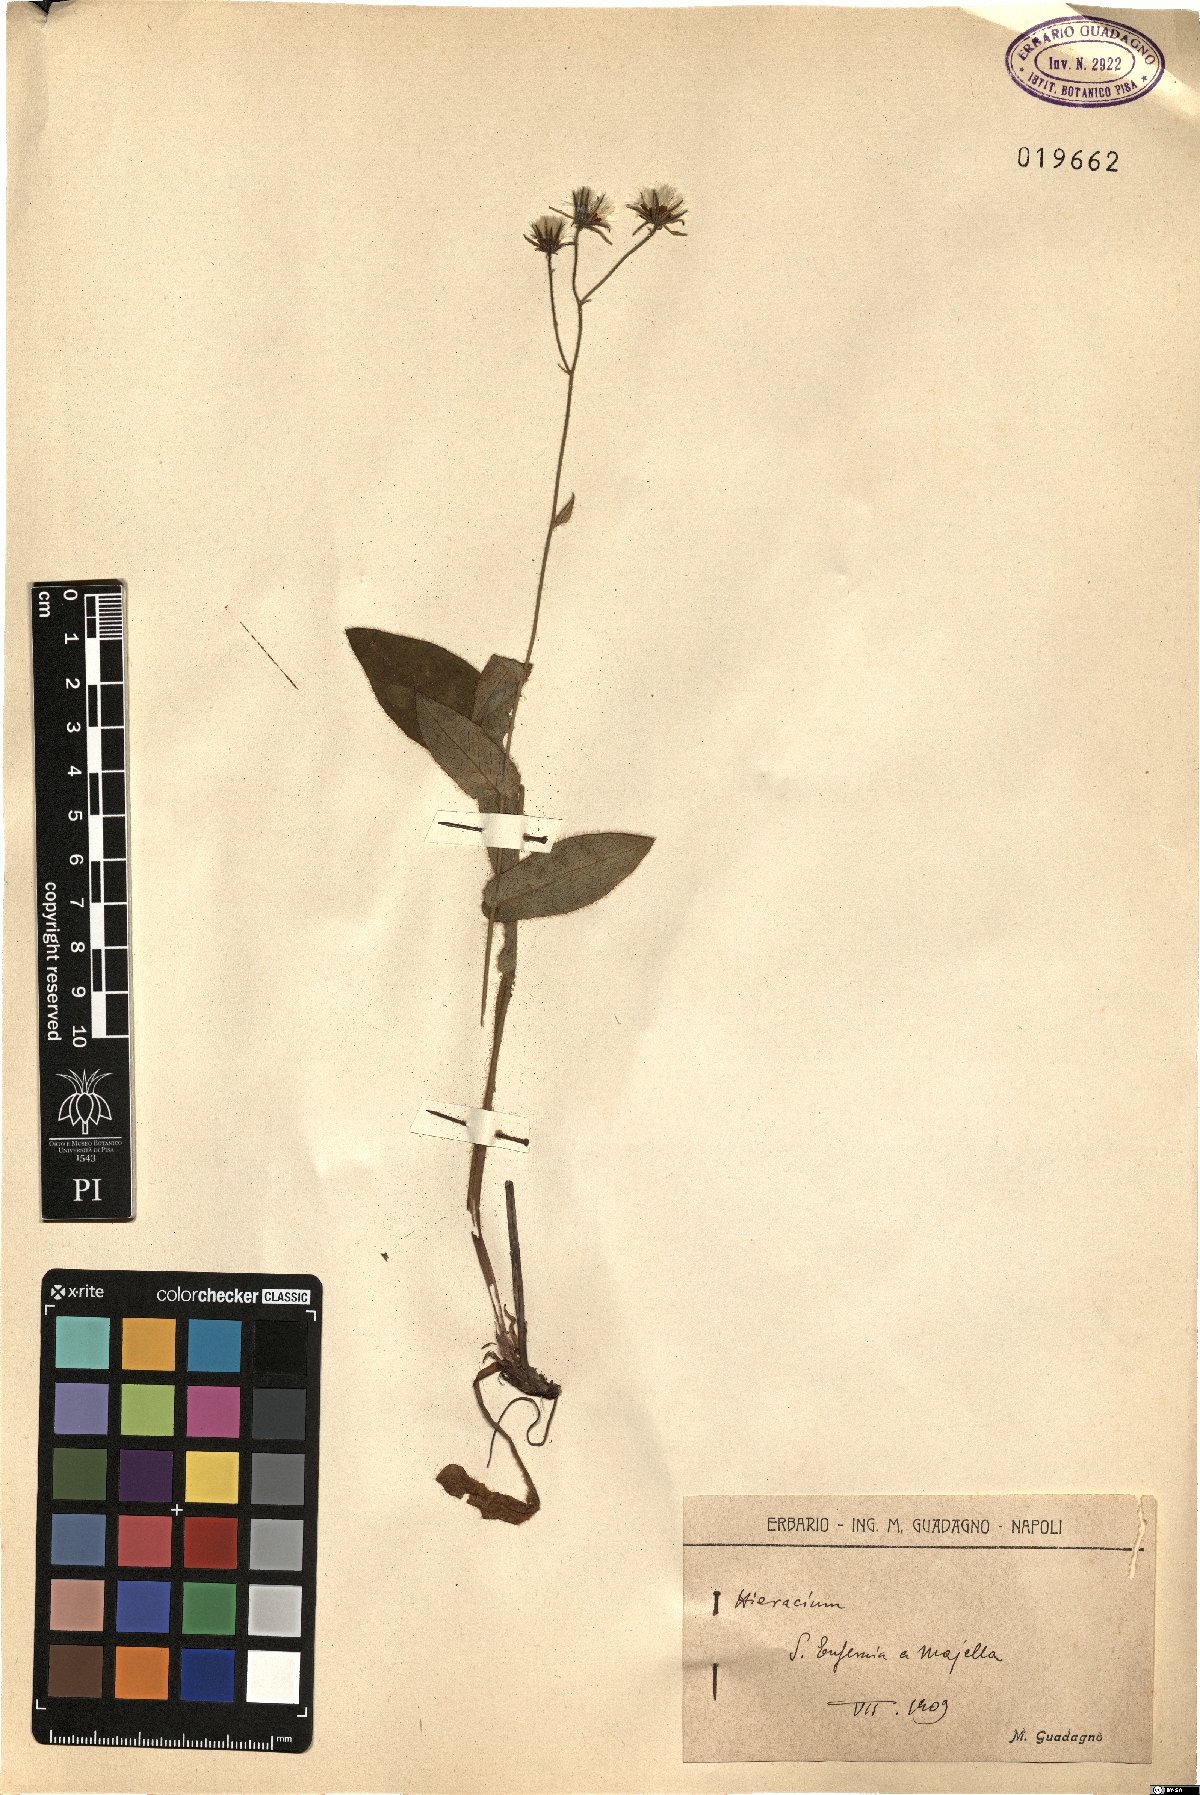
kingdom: Plantae
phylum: Tracheophyta
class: Magnoliopsida
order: Asterales
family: Asteraceae
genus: Hieracium
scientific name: Hieracium
